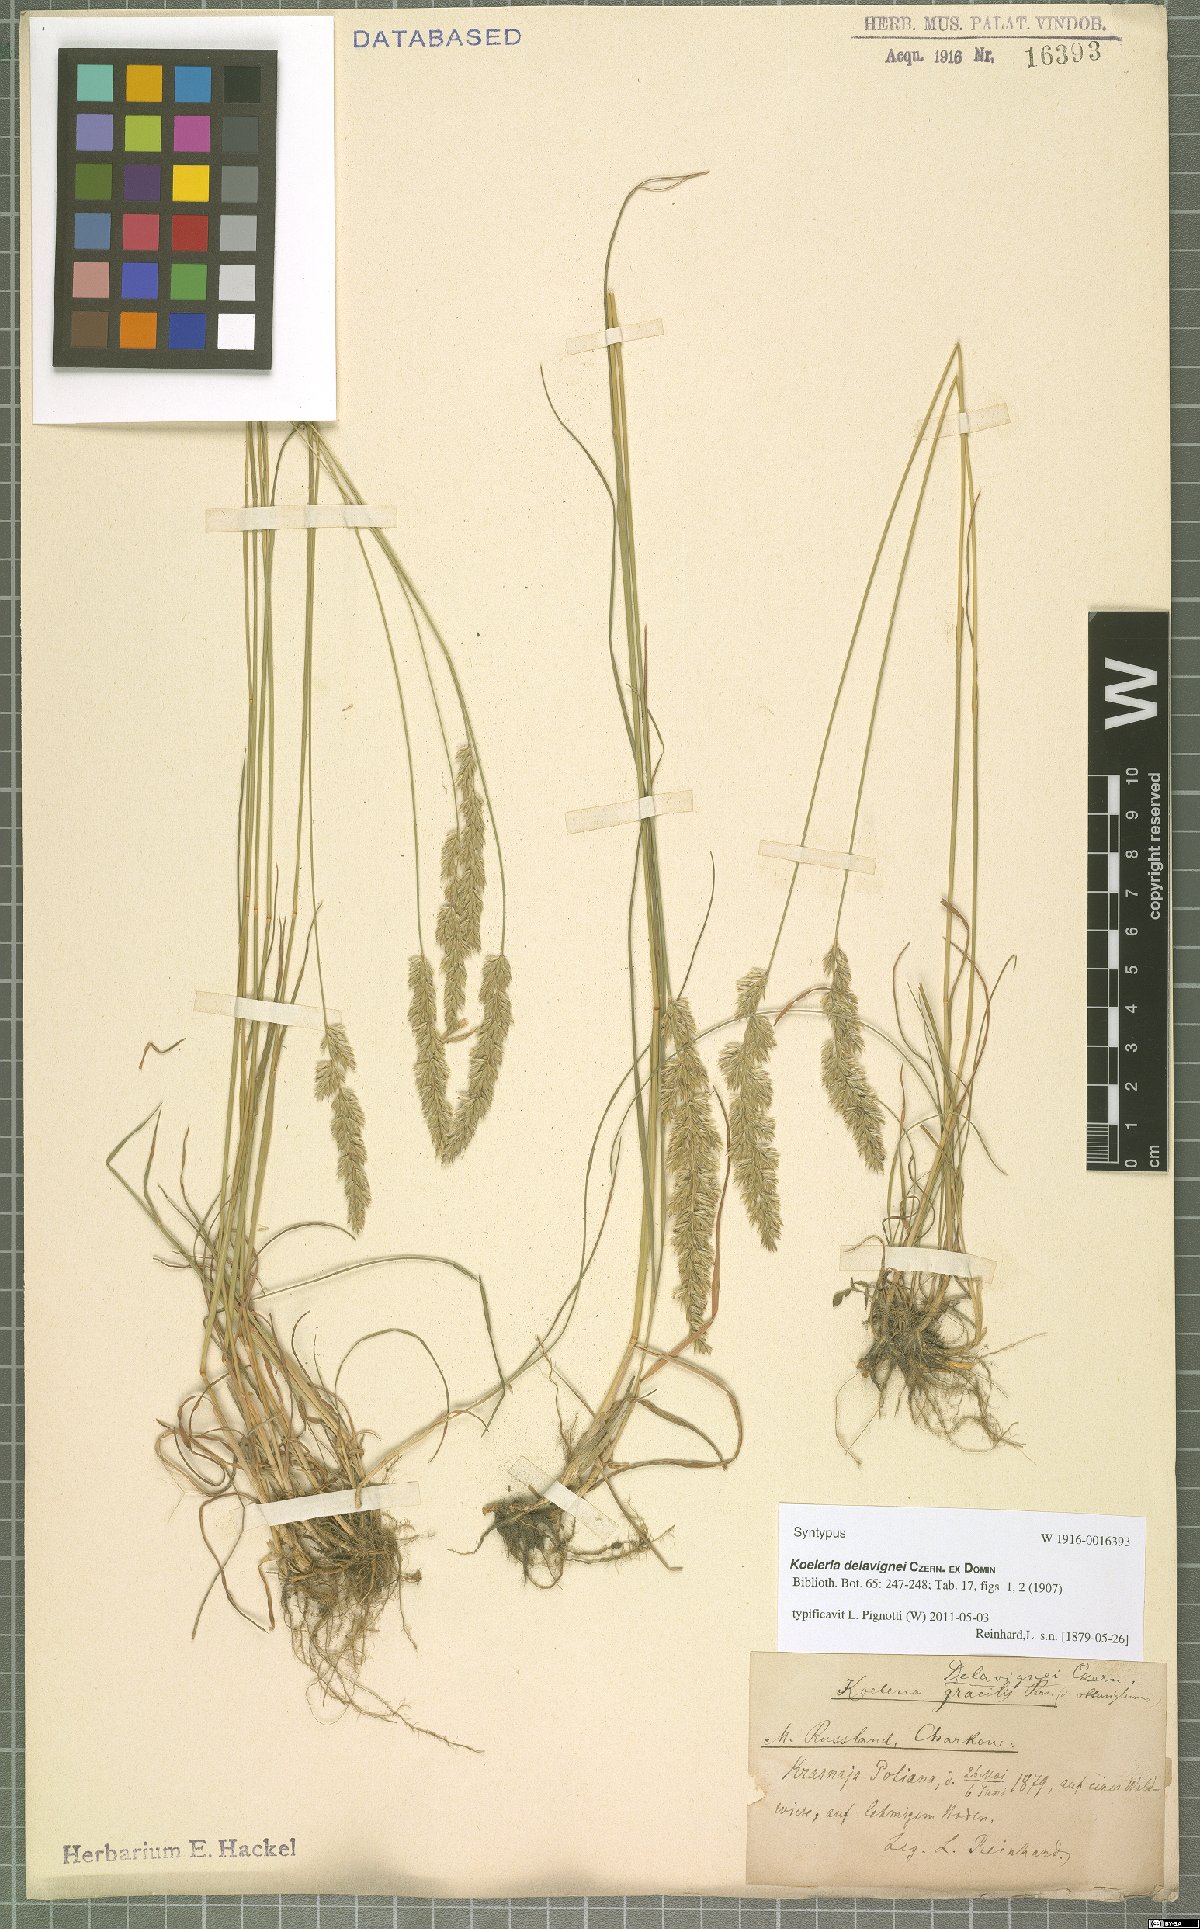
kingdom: Plantae
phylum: Tracheophyta
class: Liliopsida
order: Poales
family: Poaceae
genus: Koeleria
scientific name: Koeleria delavignei
